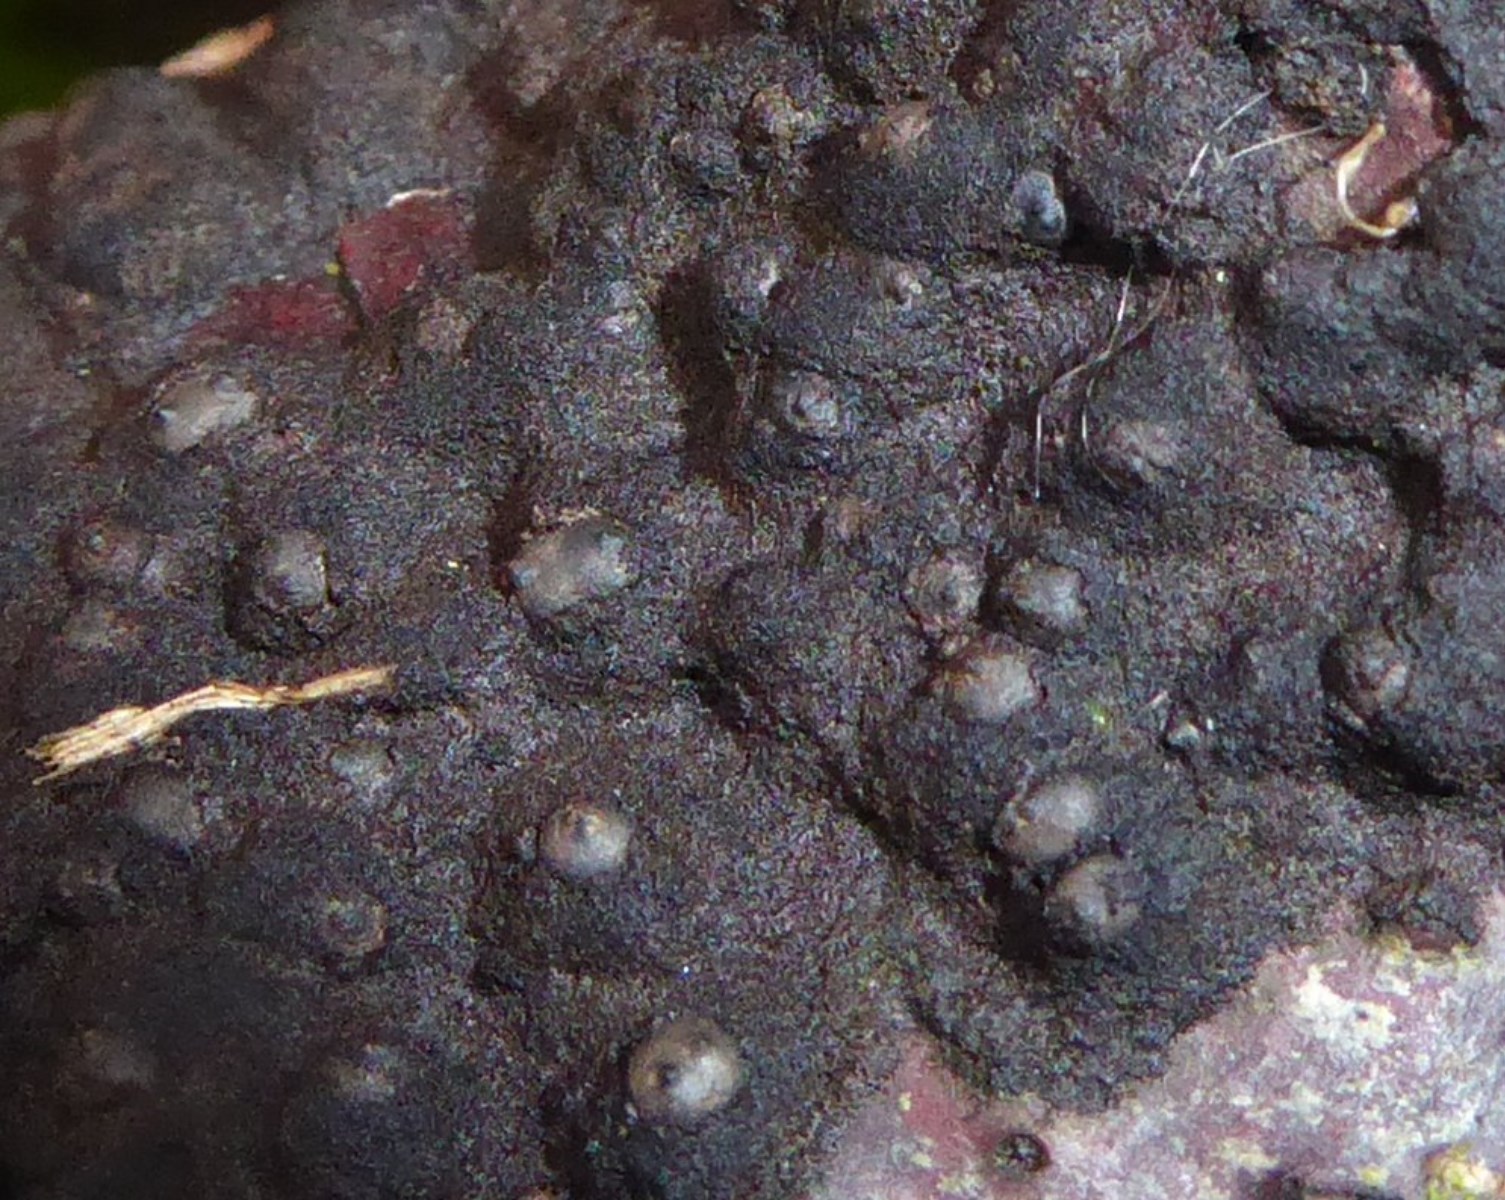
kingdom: Fungi
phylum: Ascomycota
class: Sordariomycetes
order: Xylariales
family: Xylariaceae
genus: Rosellinia
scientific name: Rosellinia
